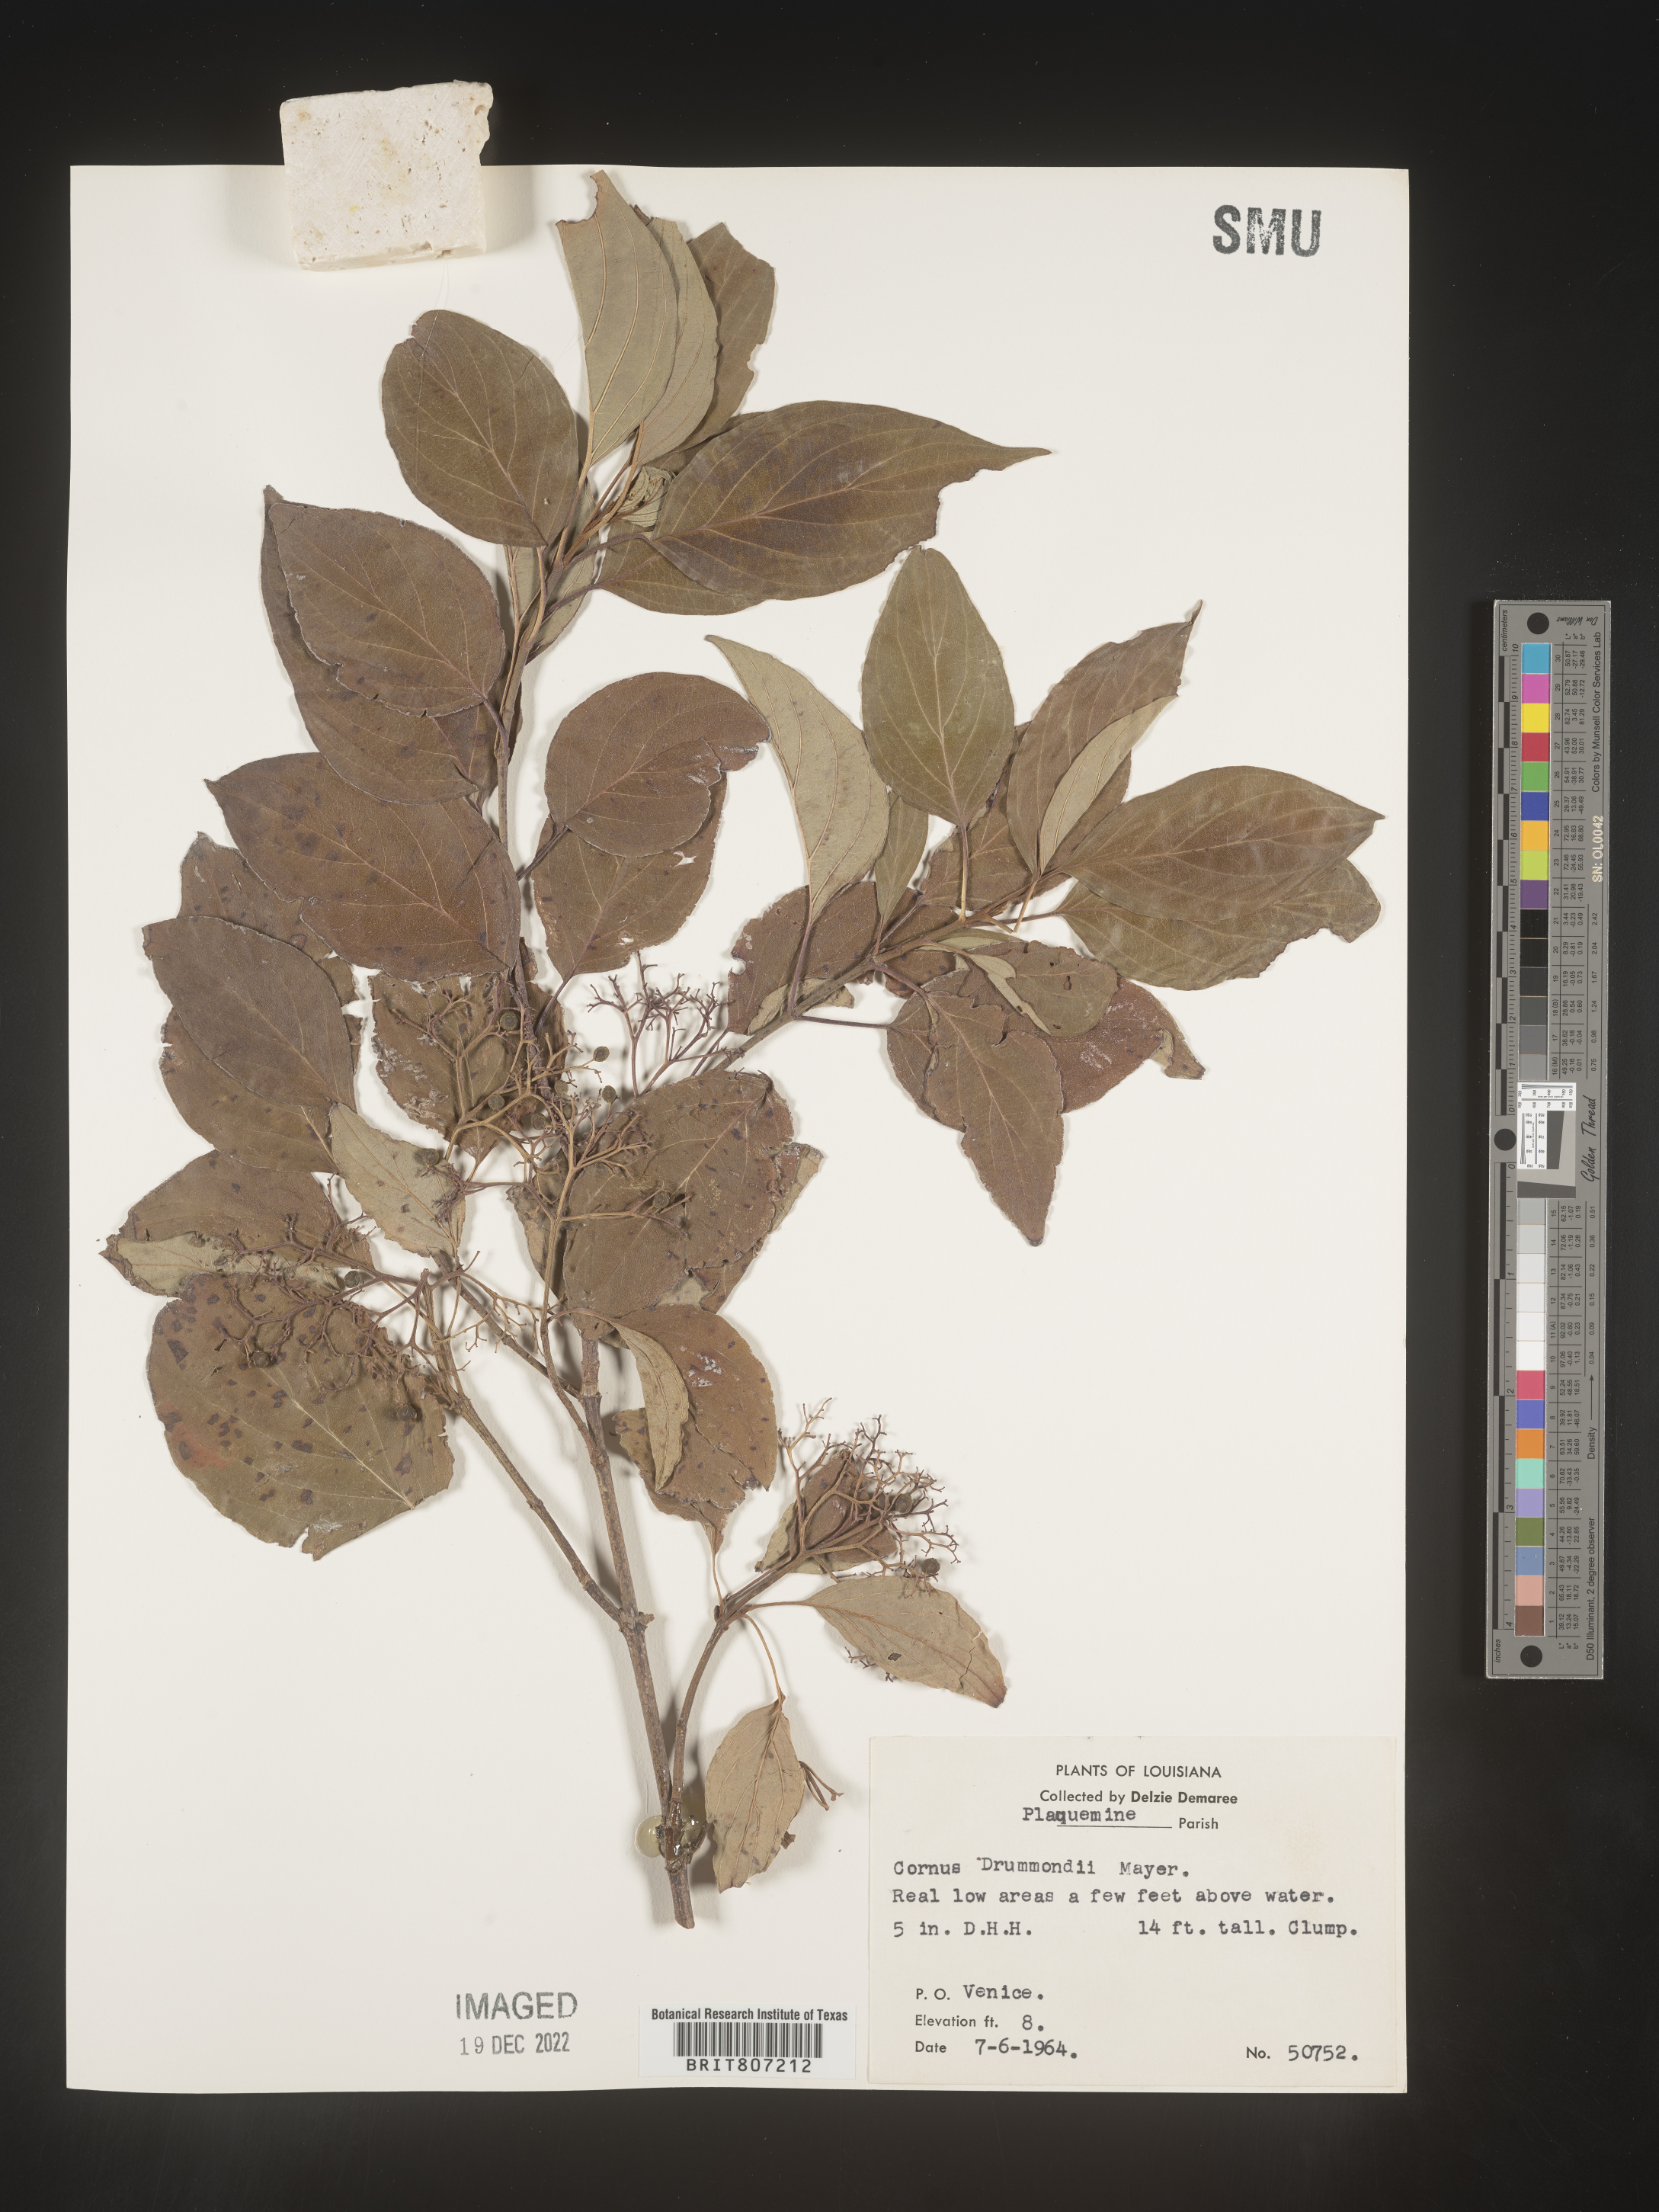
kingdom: Plantae
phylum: Tracheophyta
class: Magnoliopsida
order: Cornales
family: Cornaceae
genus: Cornus
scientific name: Cornus drummondii
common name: Rough-leaf dogwood
